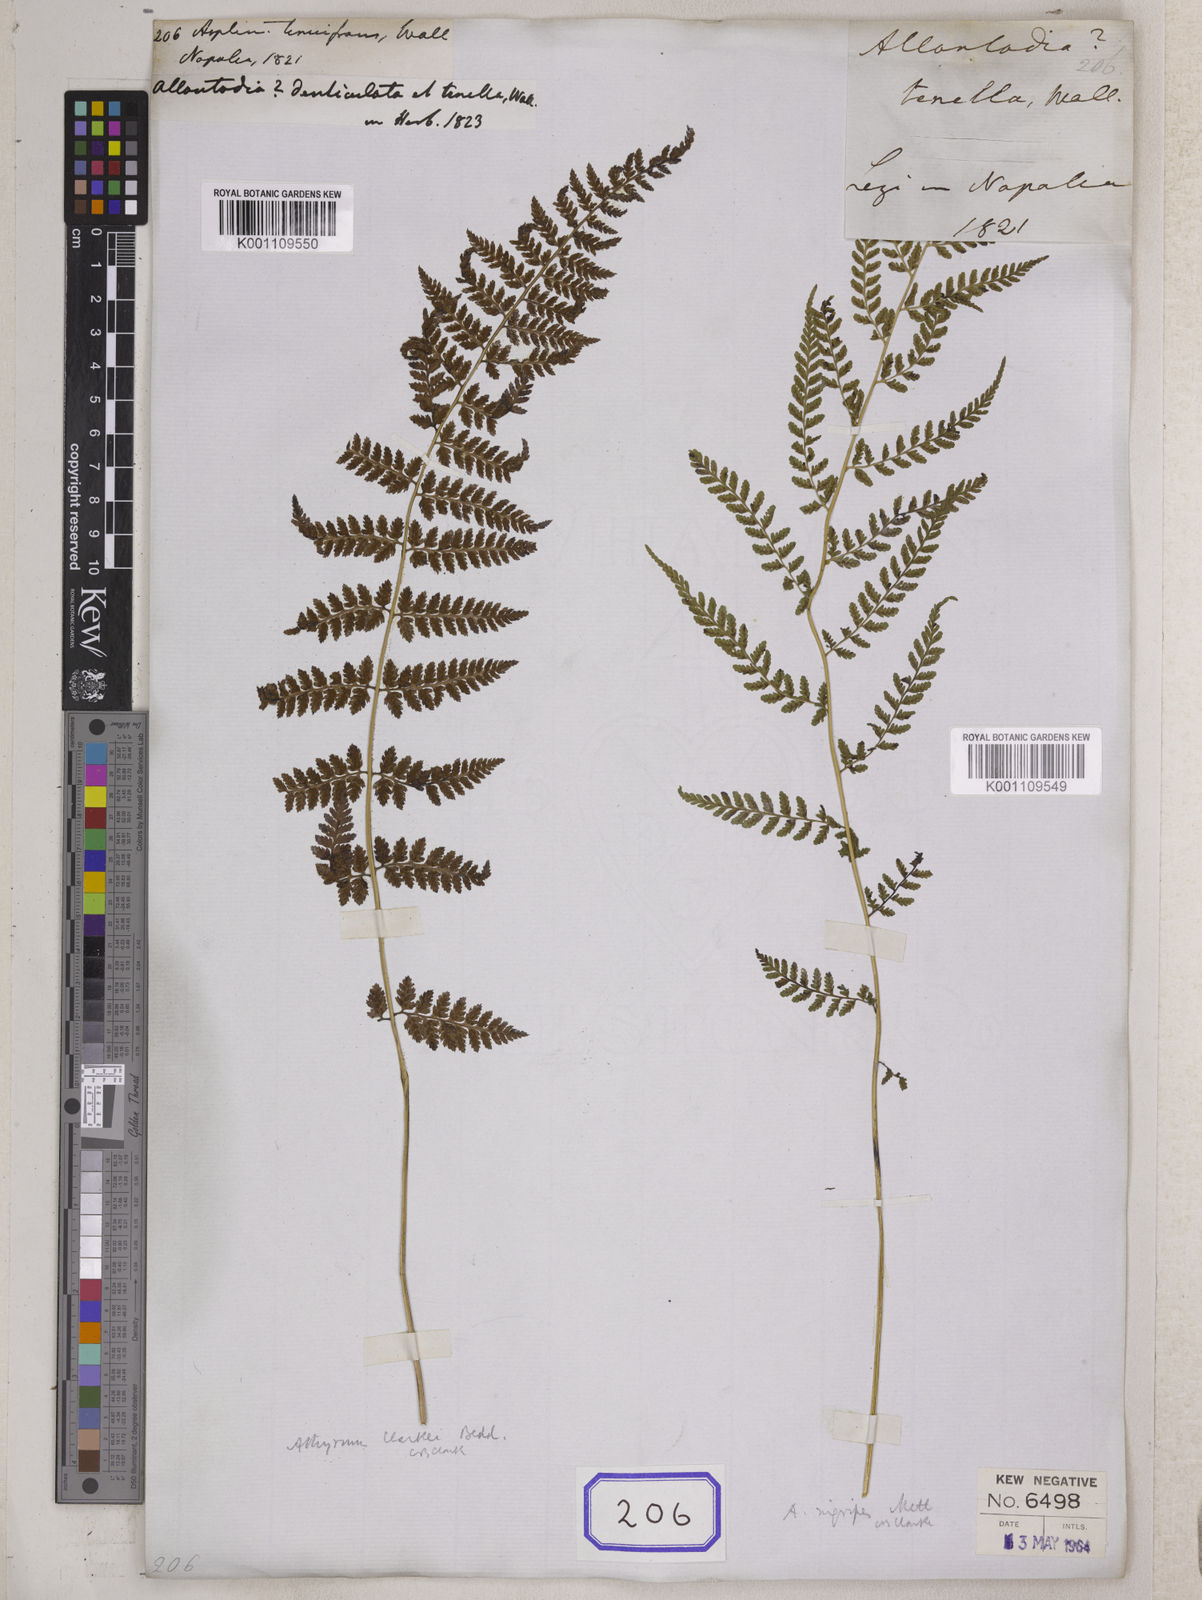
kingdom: Plantae
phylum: Tracheophyta
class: Polypodiopsida
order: Polypodiales
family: Athyriaceae
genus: Athyrium
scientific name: Athyrium strigillosum
